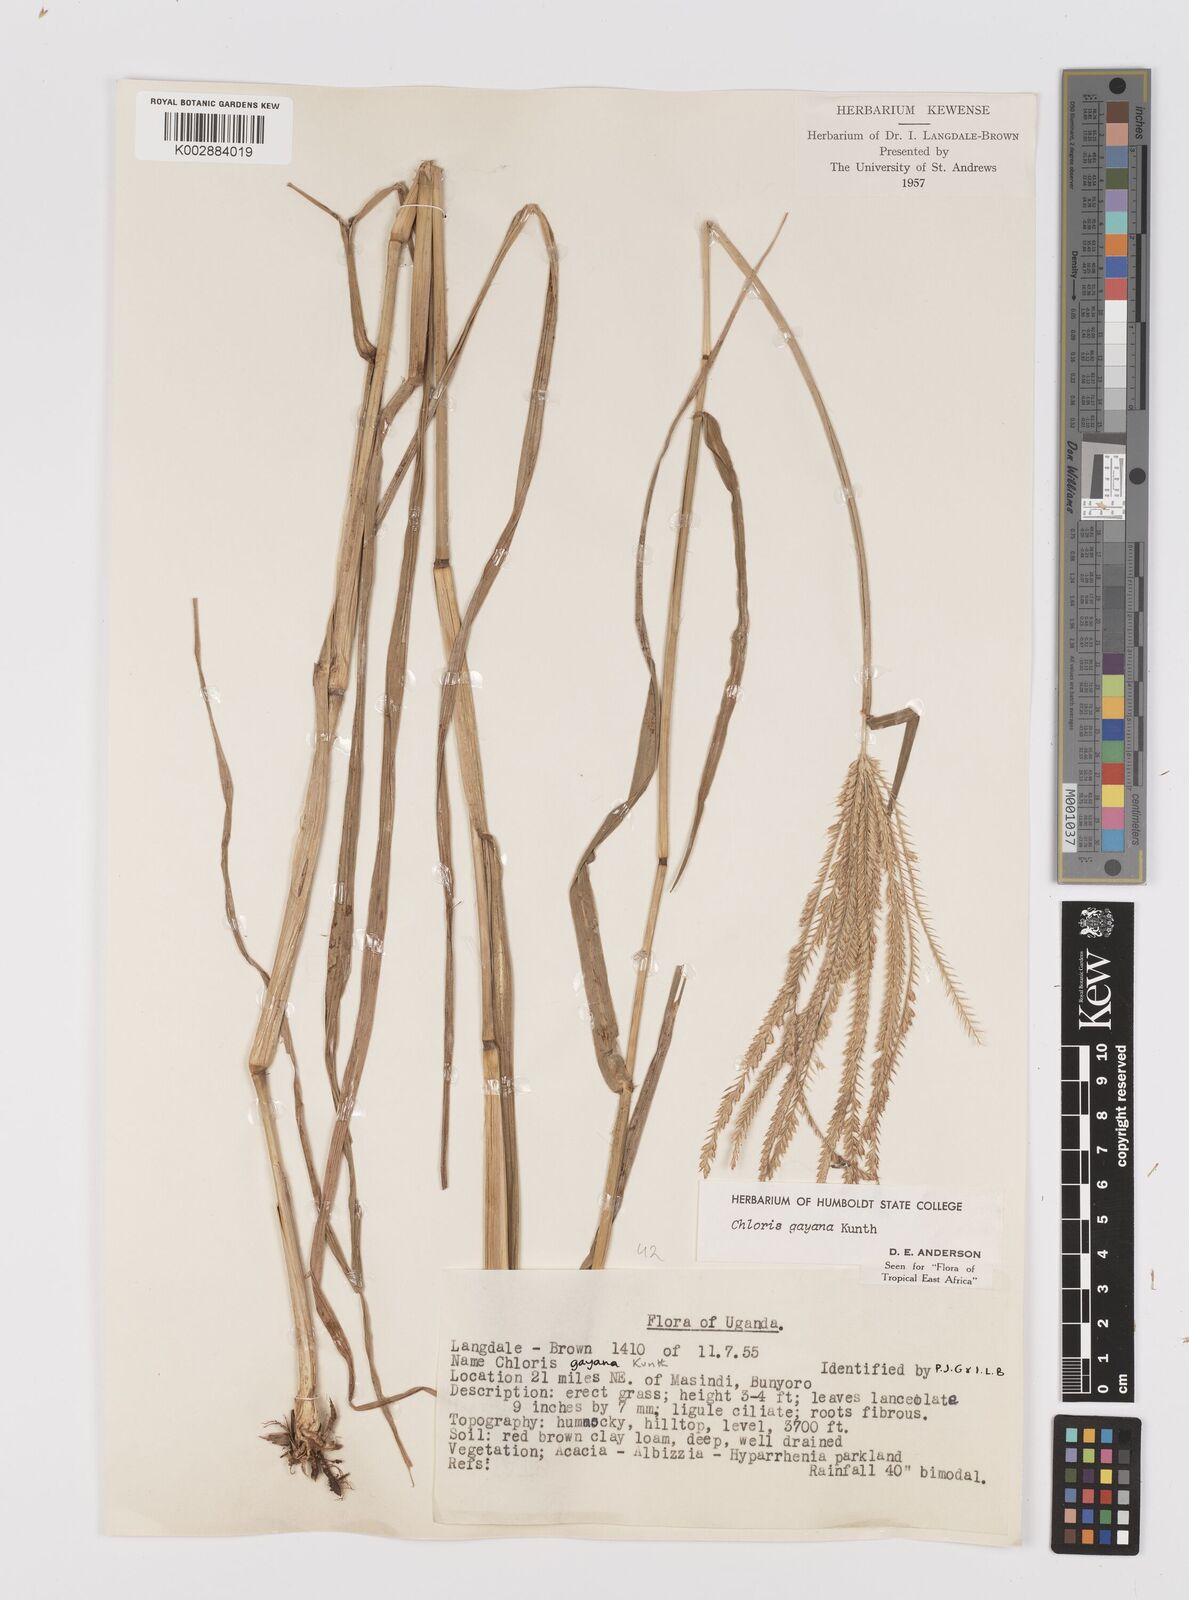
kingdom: Plantae
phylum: Tracheophyta
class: Liliopsida
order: Poales
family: Poaceae
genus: Chloris
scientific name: Chloris gayana
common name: Rhodes grass
